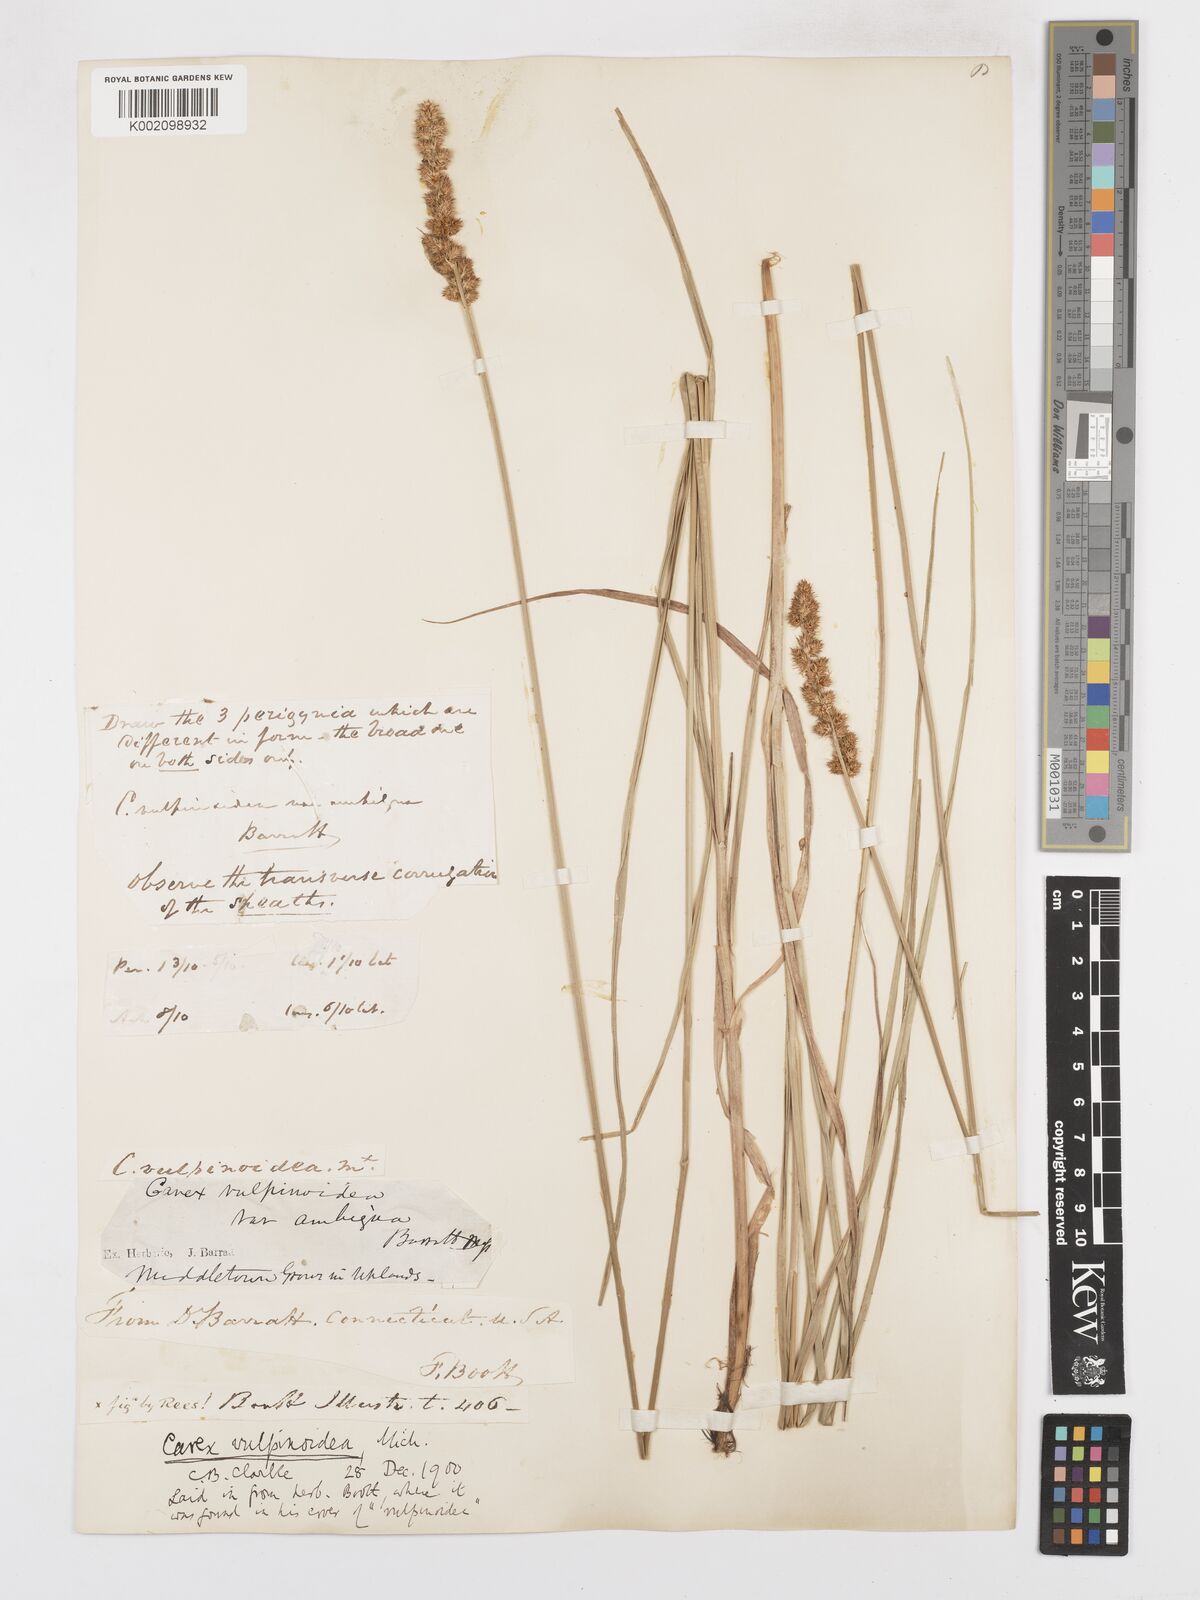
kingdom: Plantae
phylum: Tracheophyta
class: Liliopsida
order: Poales
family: Cyperaceae
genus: Carex
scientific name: Carex vulpinoidea
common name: American fox-sedge
